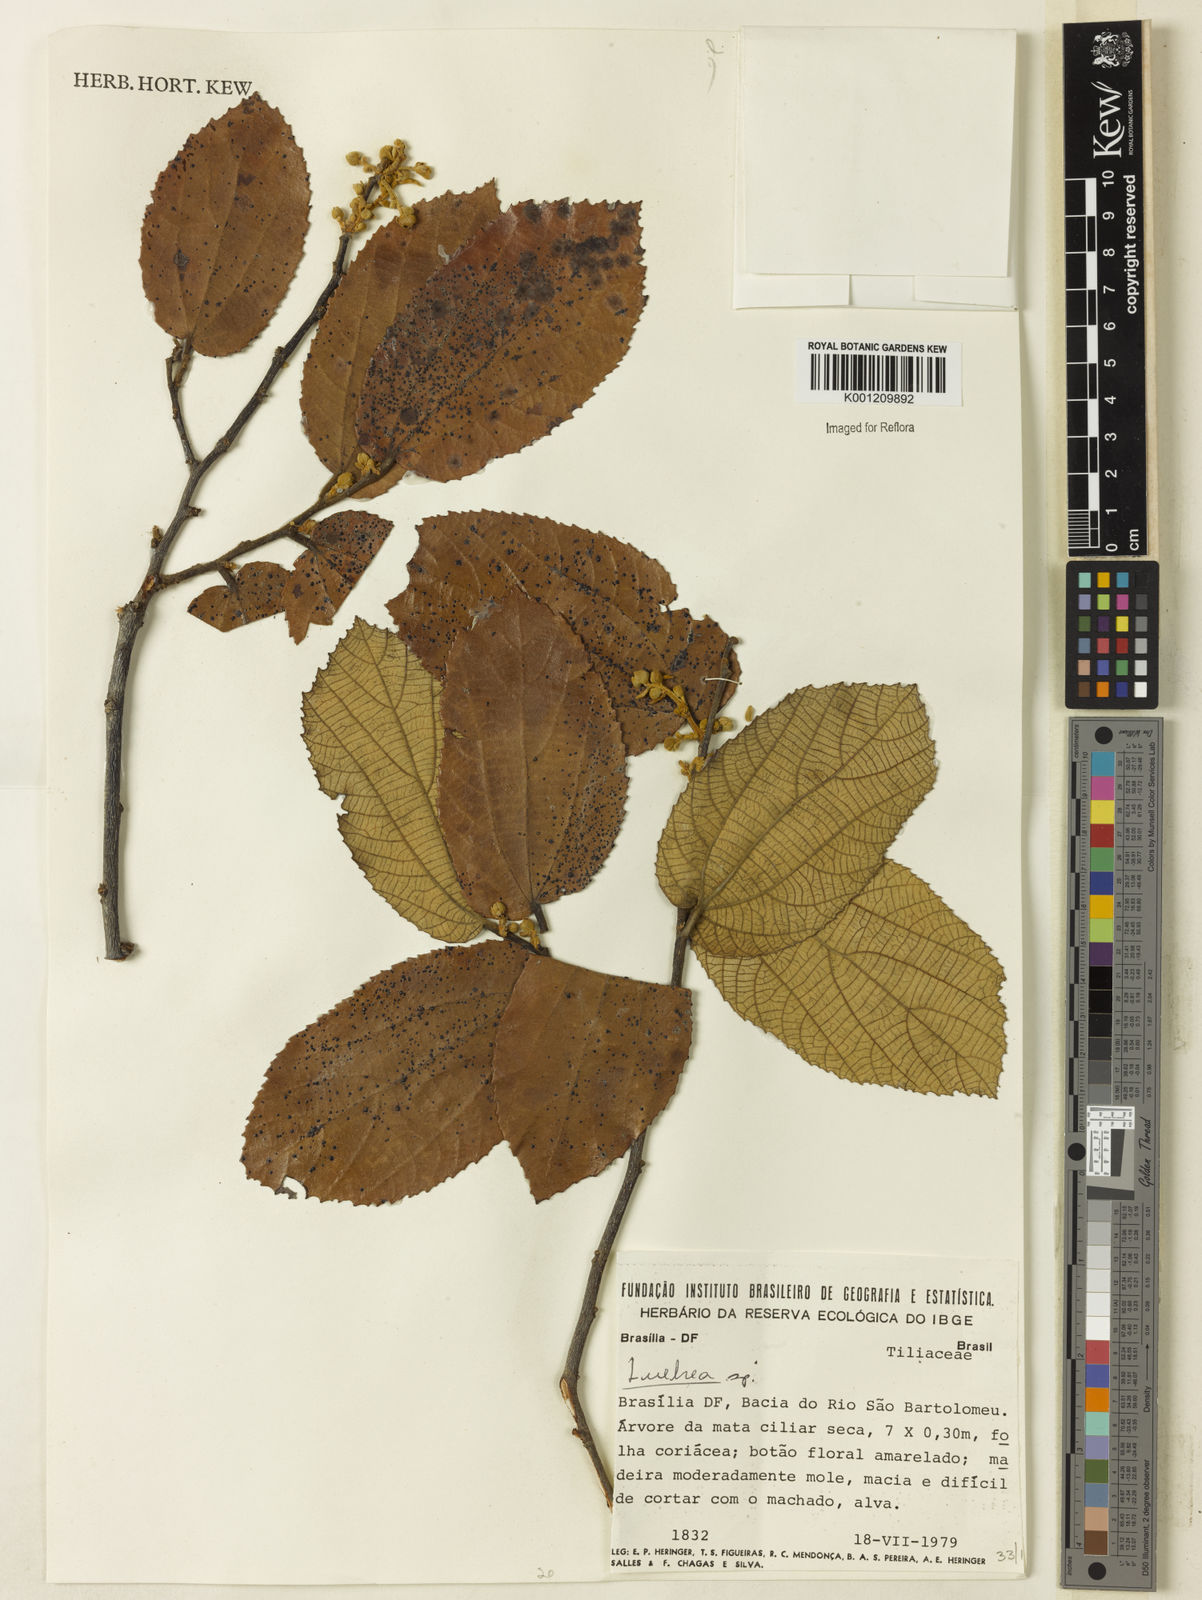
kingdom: Plantae
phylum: Tracheophyta
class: Magnoliopsida
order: Malvales
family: Malvaceae
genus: Luehea
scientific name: Luehea
